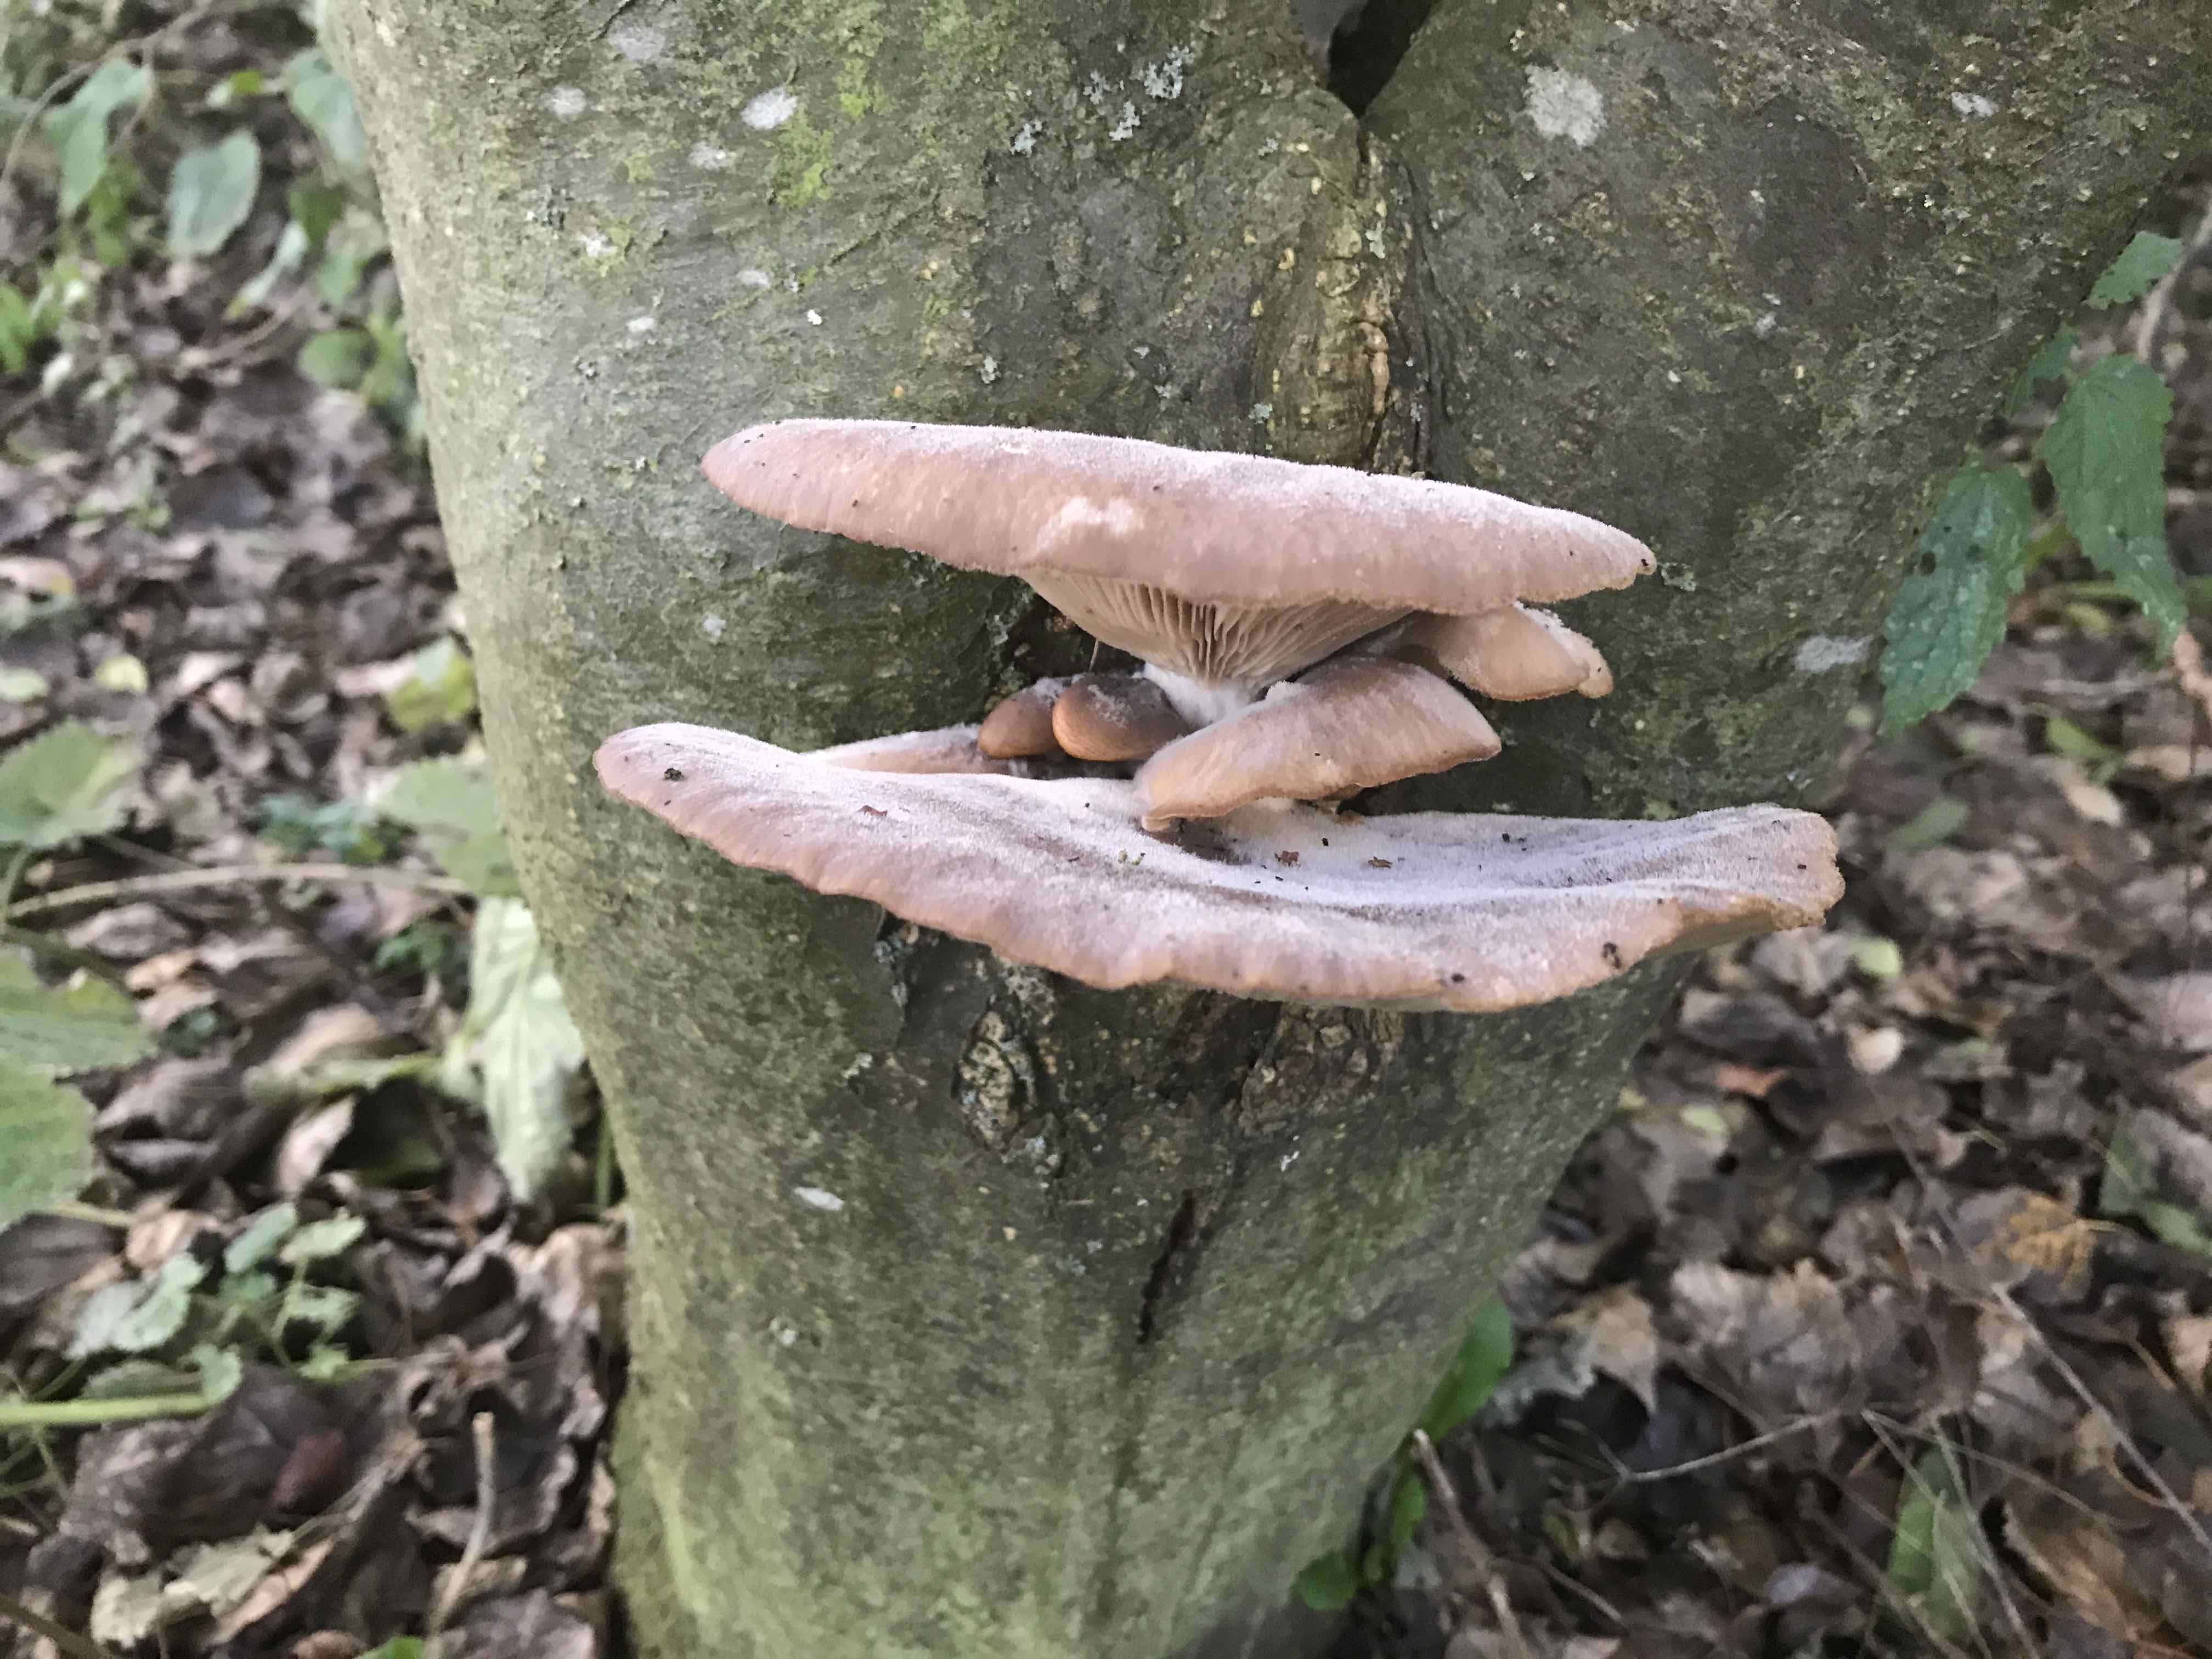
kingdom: Fungi
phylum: Basidiomycota
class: Agaricomycetes
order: Agaricales
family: Pleurotaceae
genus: Pleurotus
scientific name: Pleurotus ostreatus
